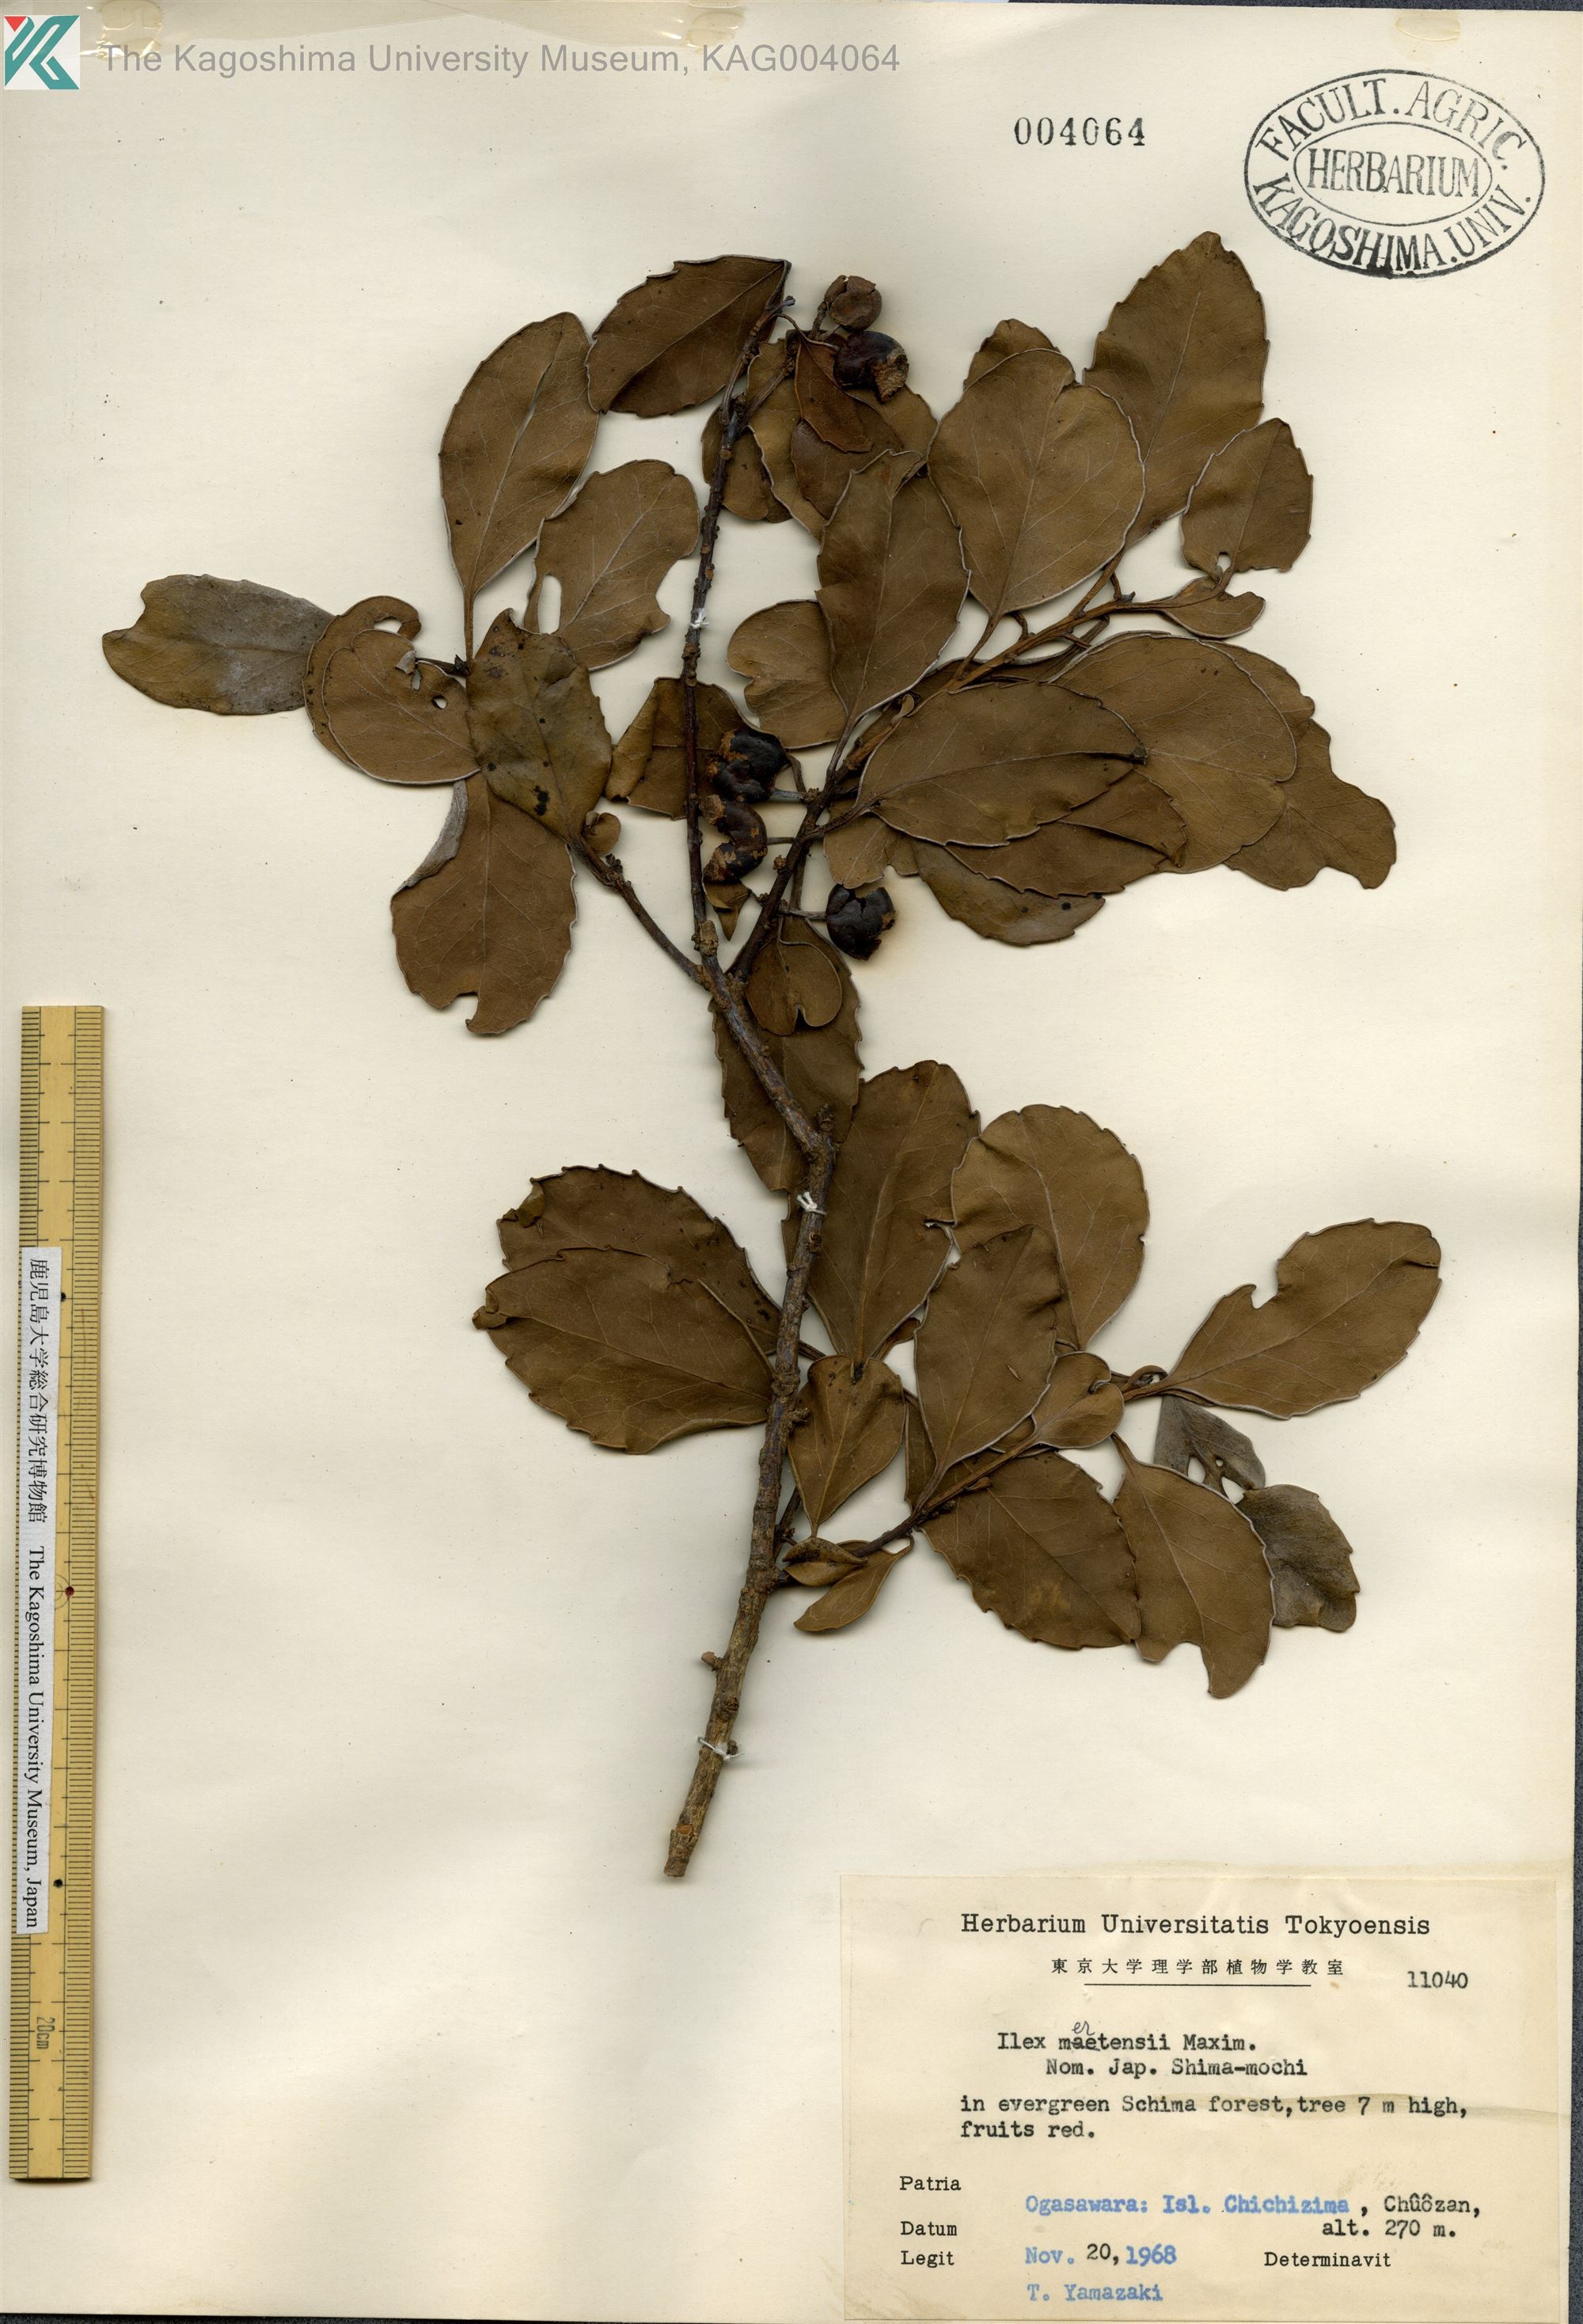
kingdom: Plantae
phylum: Tracheophyta
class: Magnoliopsida
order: Aquifoliales
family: Aquifoliaceae
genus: Ilex
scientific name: Ilex mertensii
